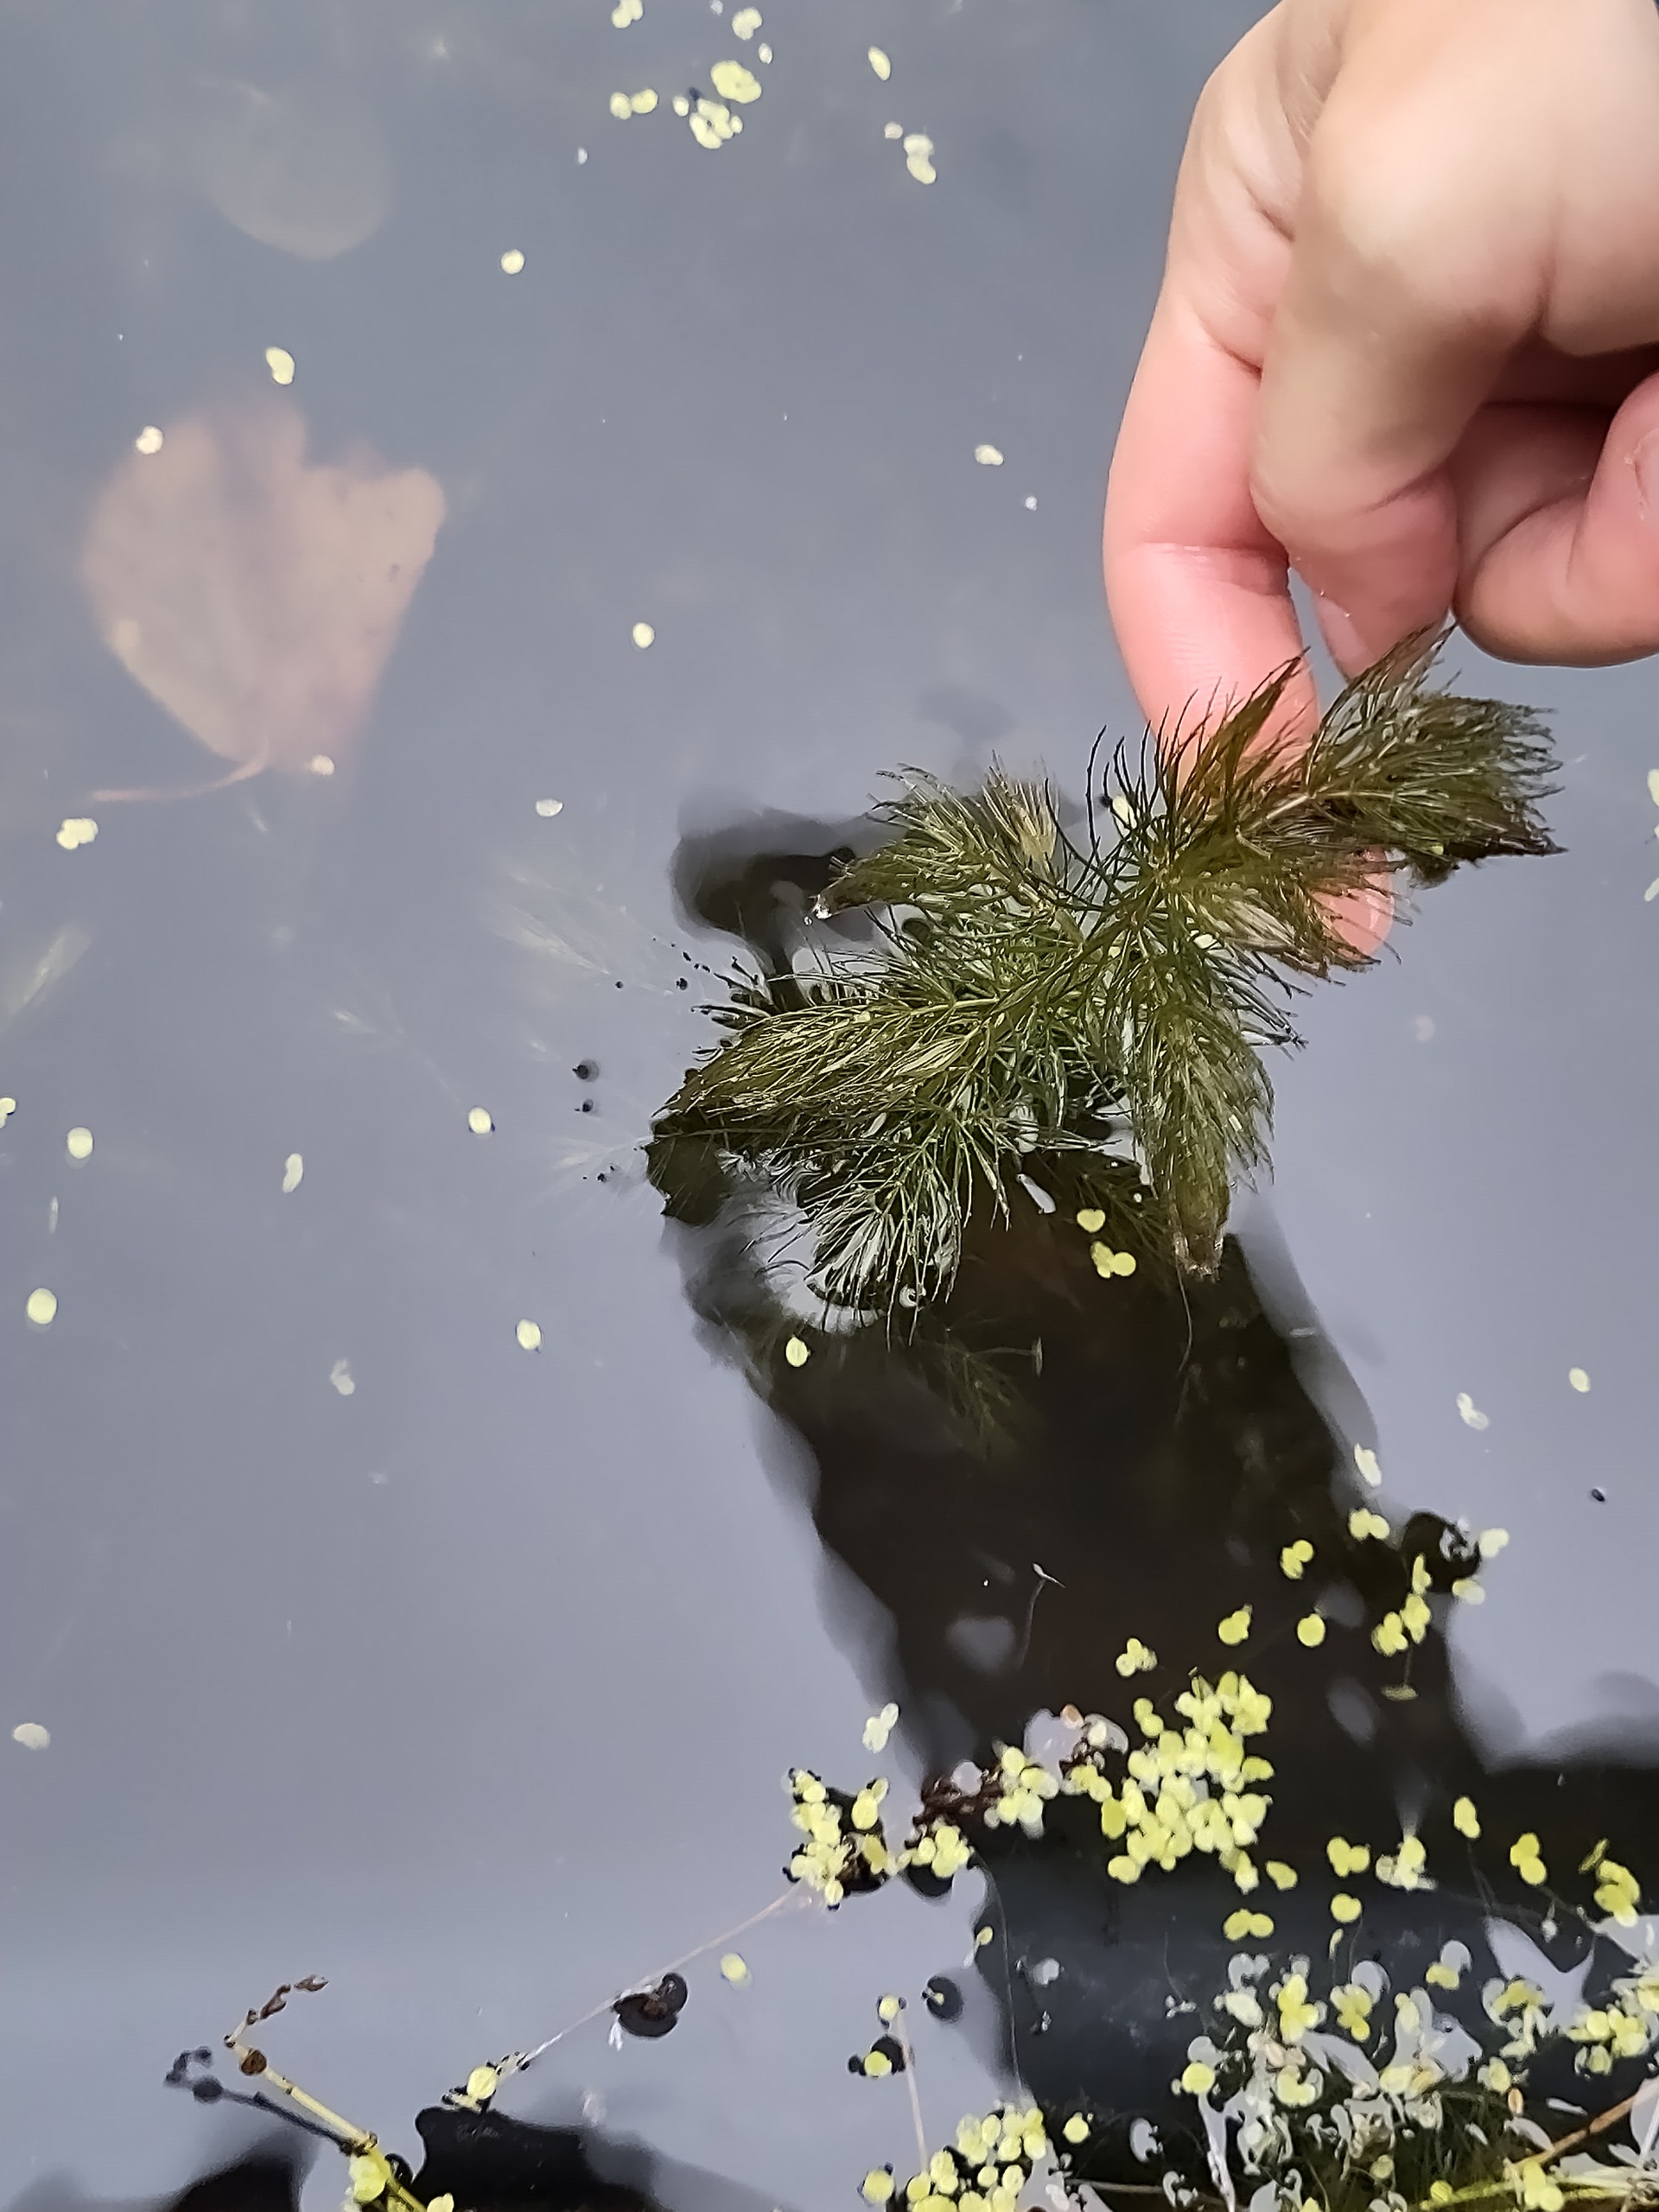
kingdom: Plantae
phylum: Tracheophyta
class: Magnoliopsida
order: Ceratophyllales
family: Ceratophyllaceae
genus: Ceratophyllum
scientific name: Ceratophyllum demersum
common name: Tornfrøet hornblad
